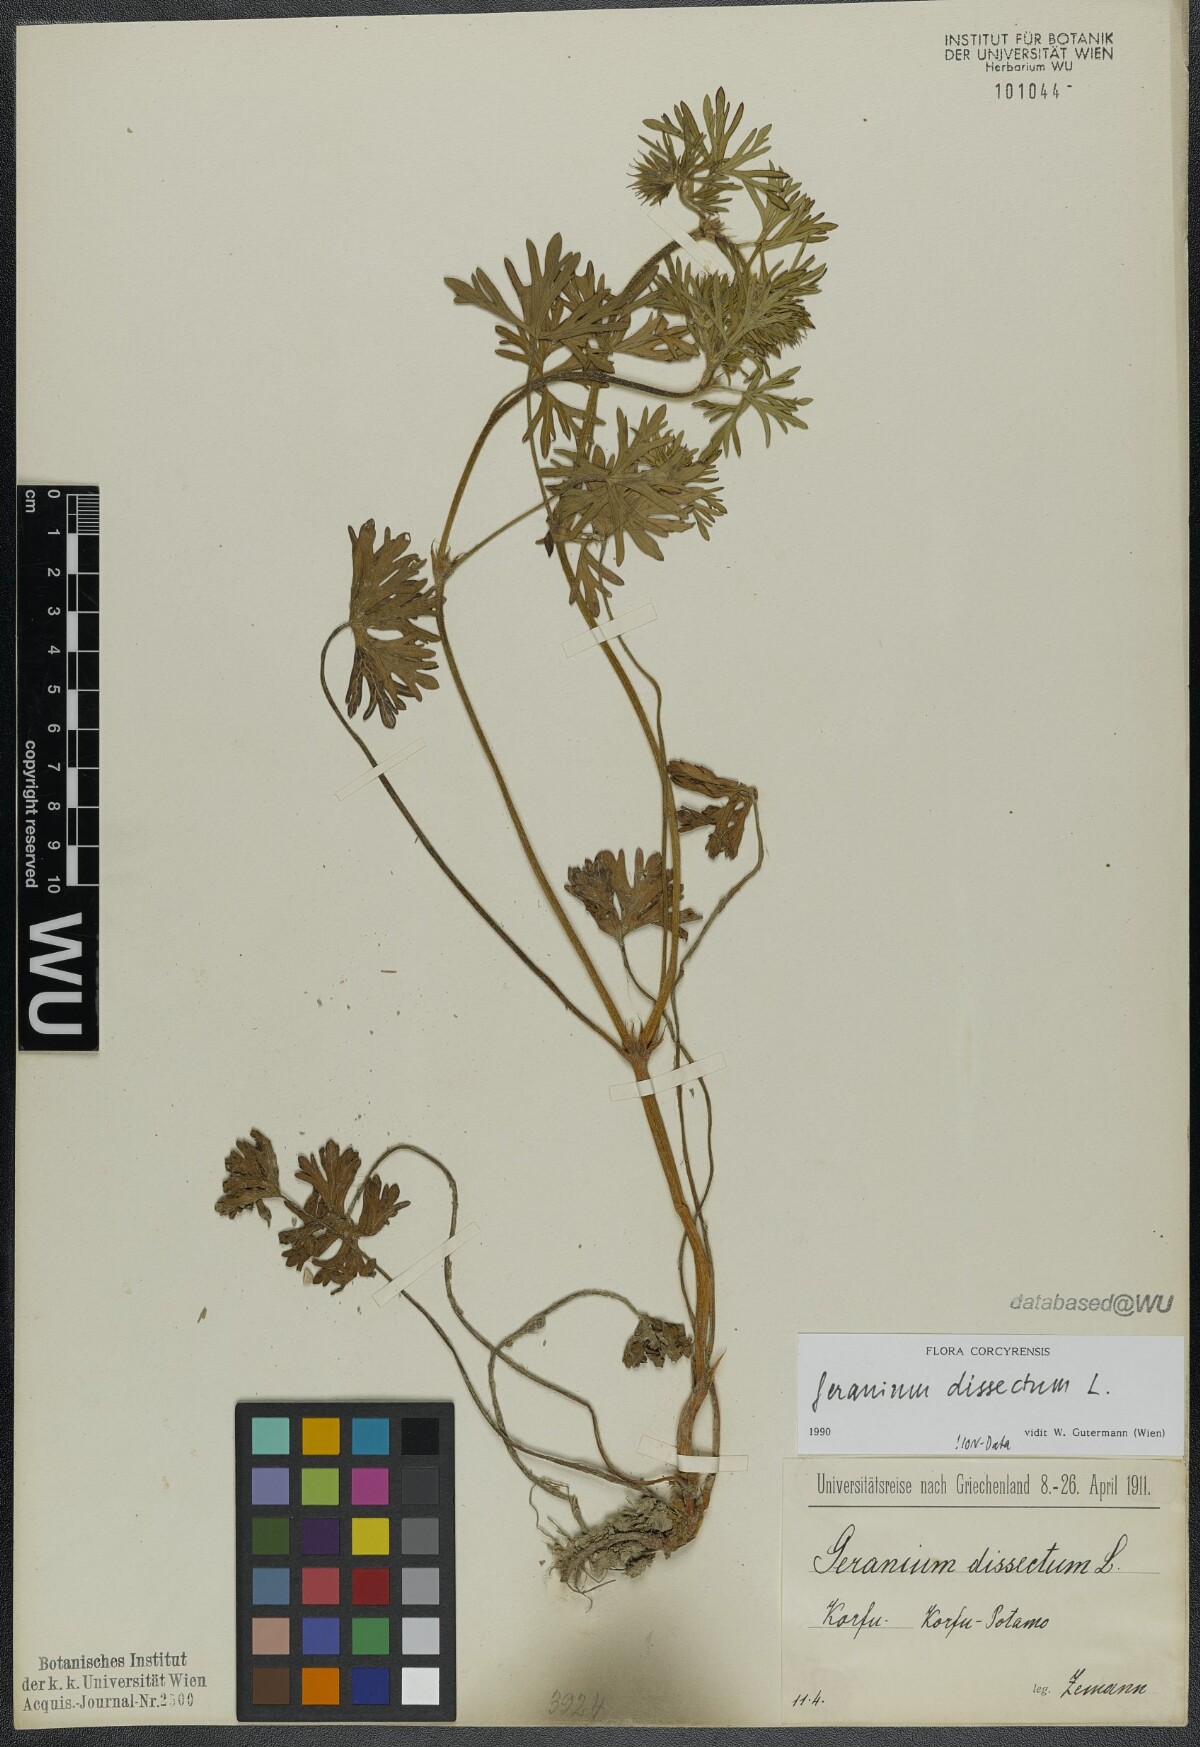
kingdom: Plantae
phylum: Tracheophyta
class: Magnoliopsida
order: Geraniales
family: Geraniaceae
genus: Geranium
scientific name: Geranium dissectum
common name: Cut-leaved crane's-bill
